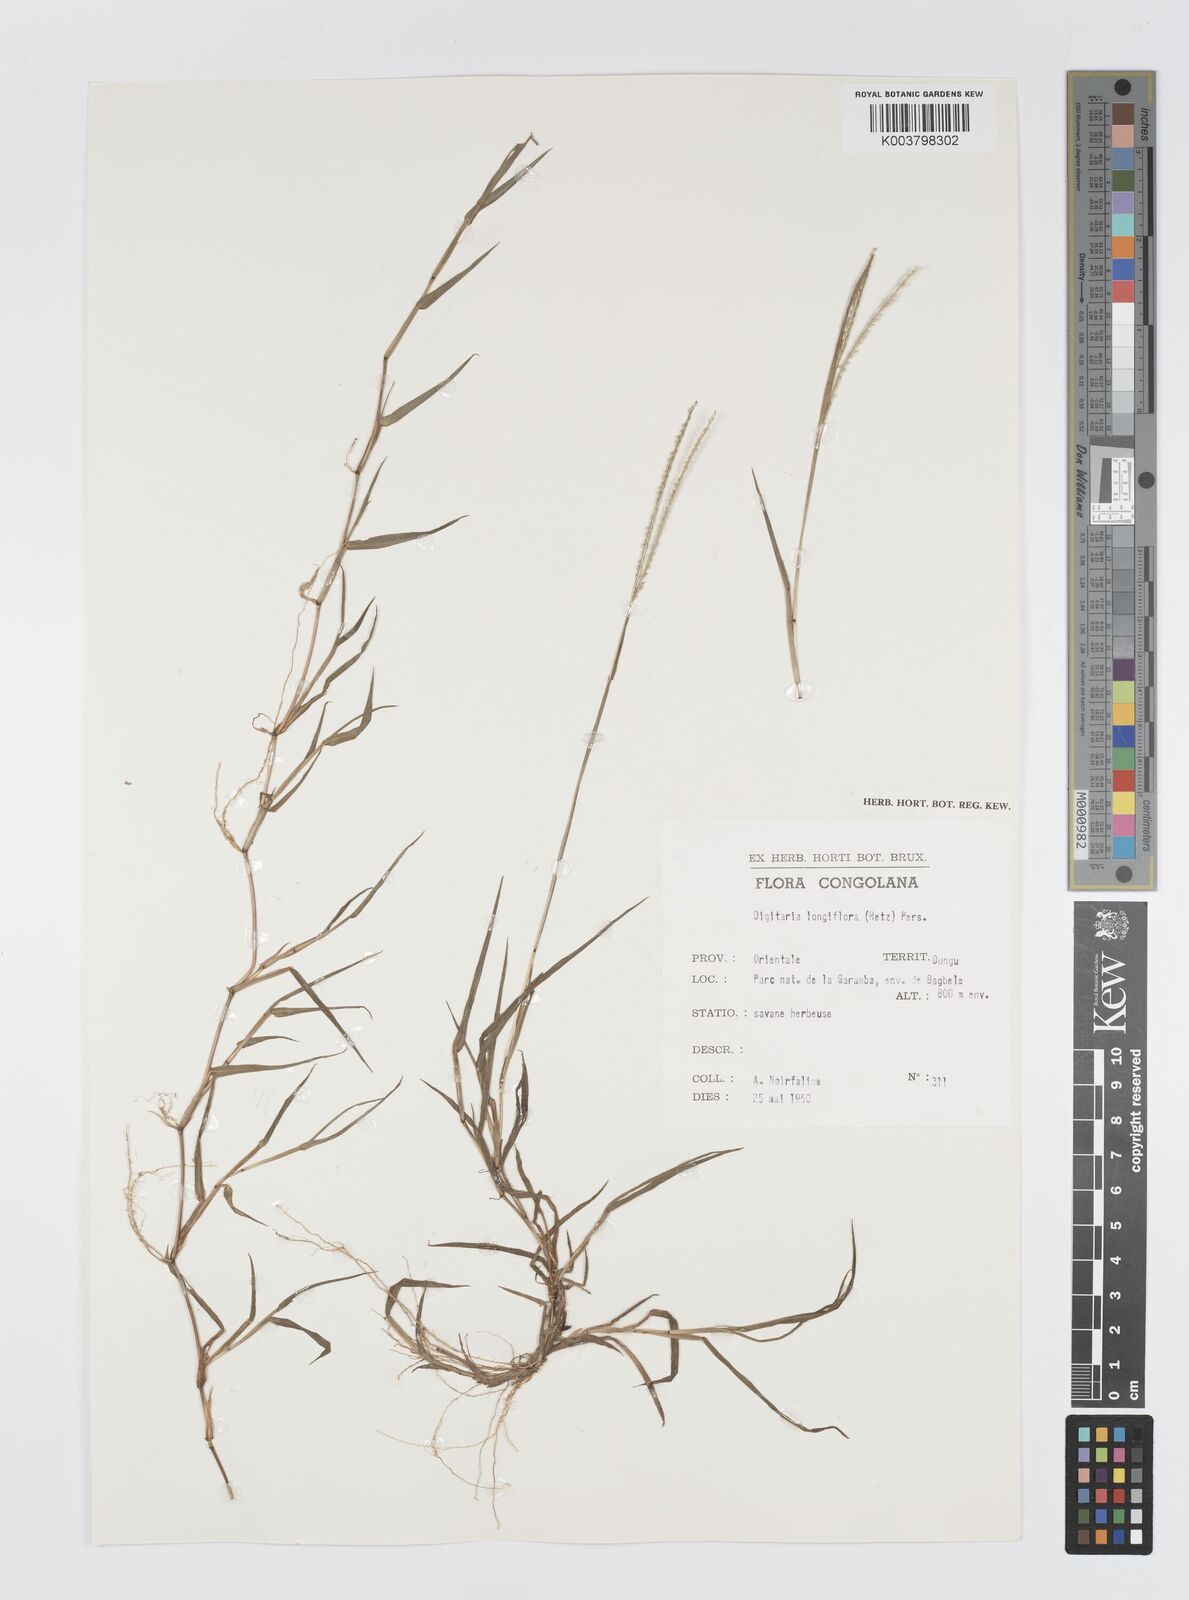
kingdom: Plantae
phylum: Tracheophyta
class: Liliopsida
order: Poales
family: Poaceae
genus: Digitaria
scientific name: Digitaria longiflora
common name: Wire crabgrass
